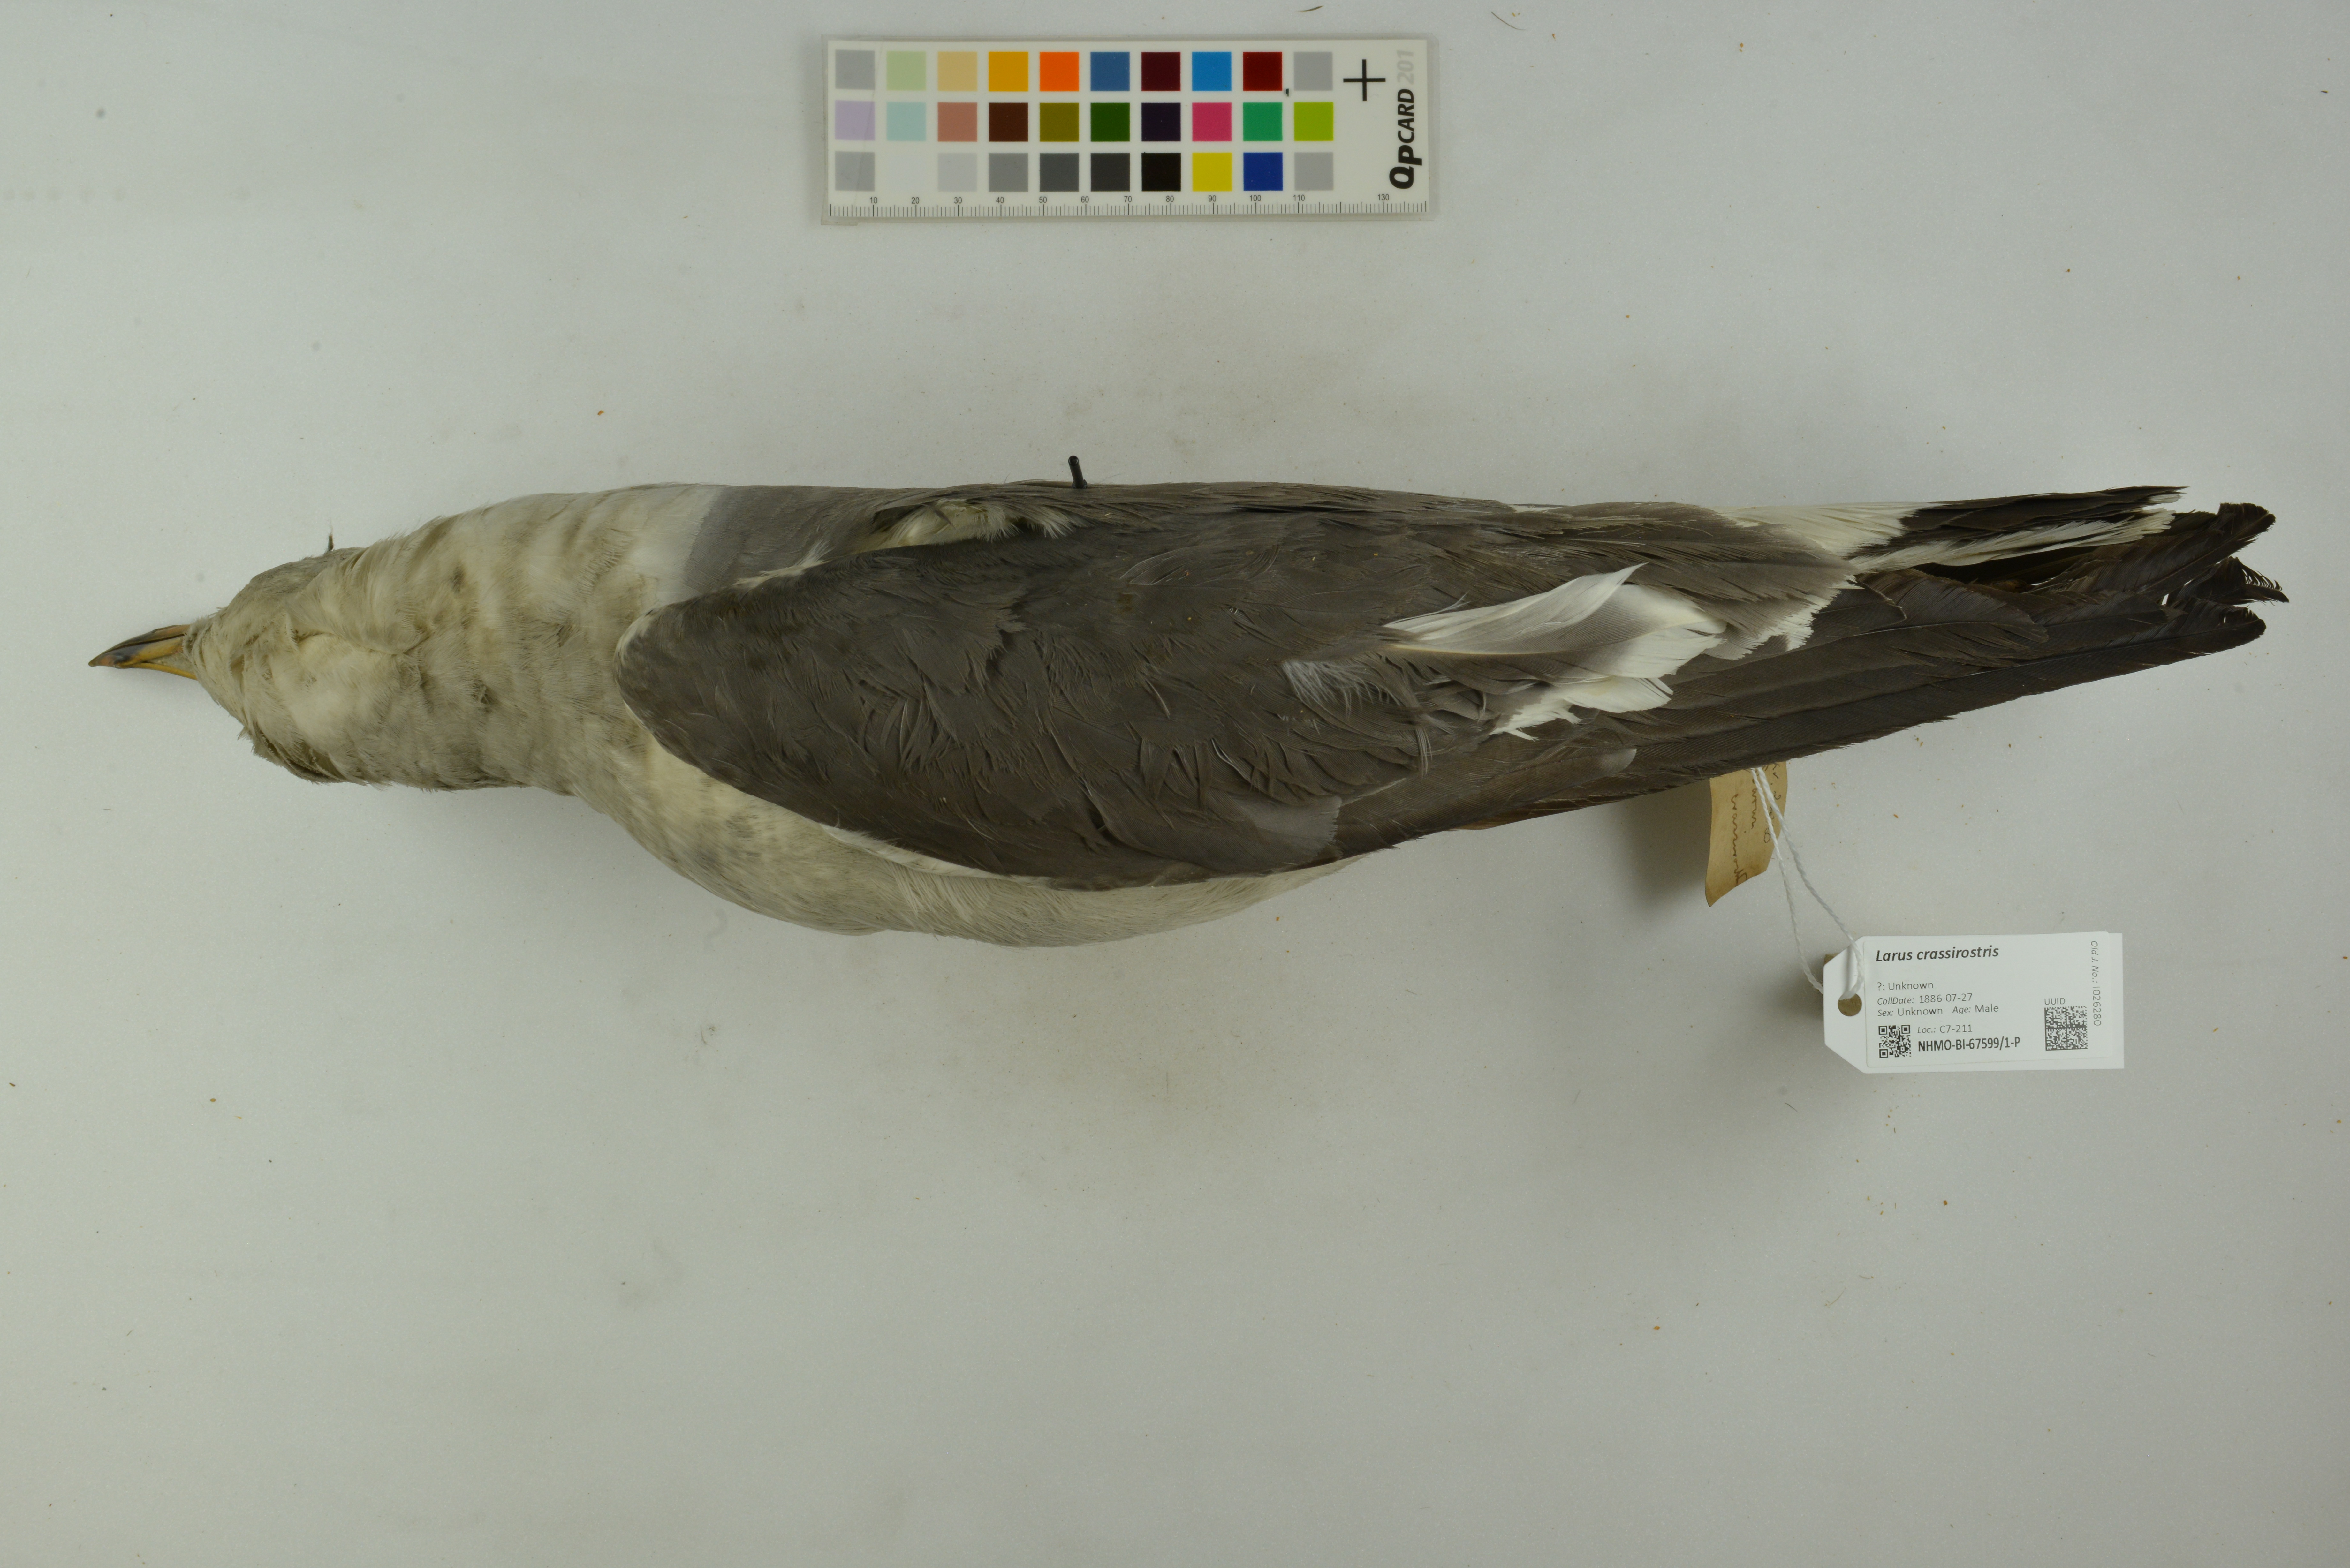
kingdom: Animalia
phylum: Chordata
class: Aves
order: Charadriiformes
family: Laridae
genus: Larus
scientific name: Larus crassirostris
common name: Black-tailed gull
